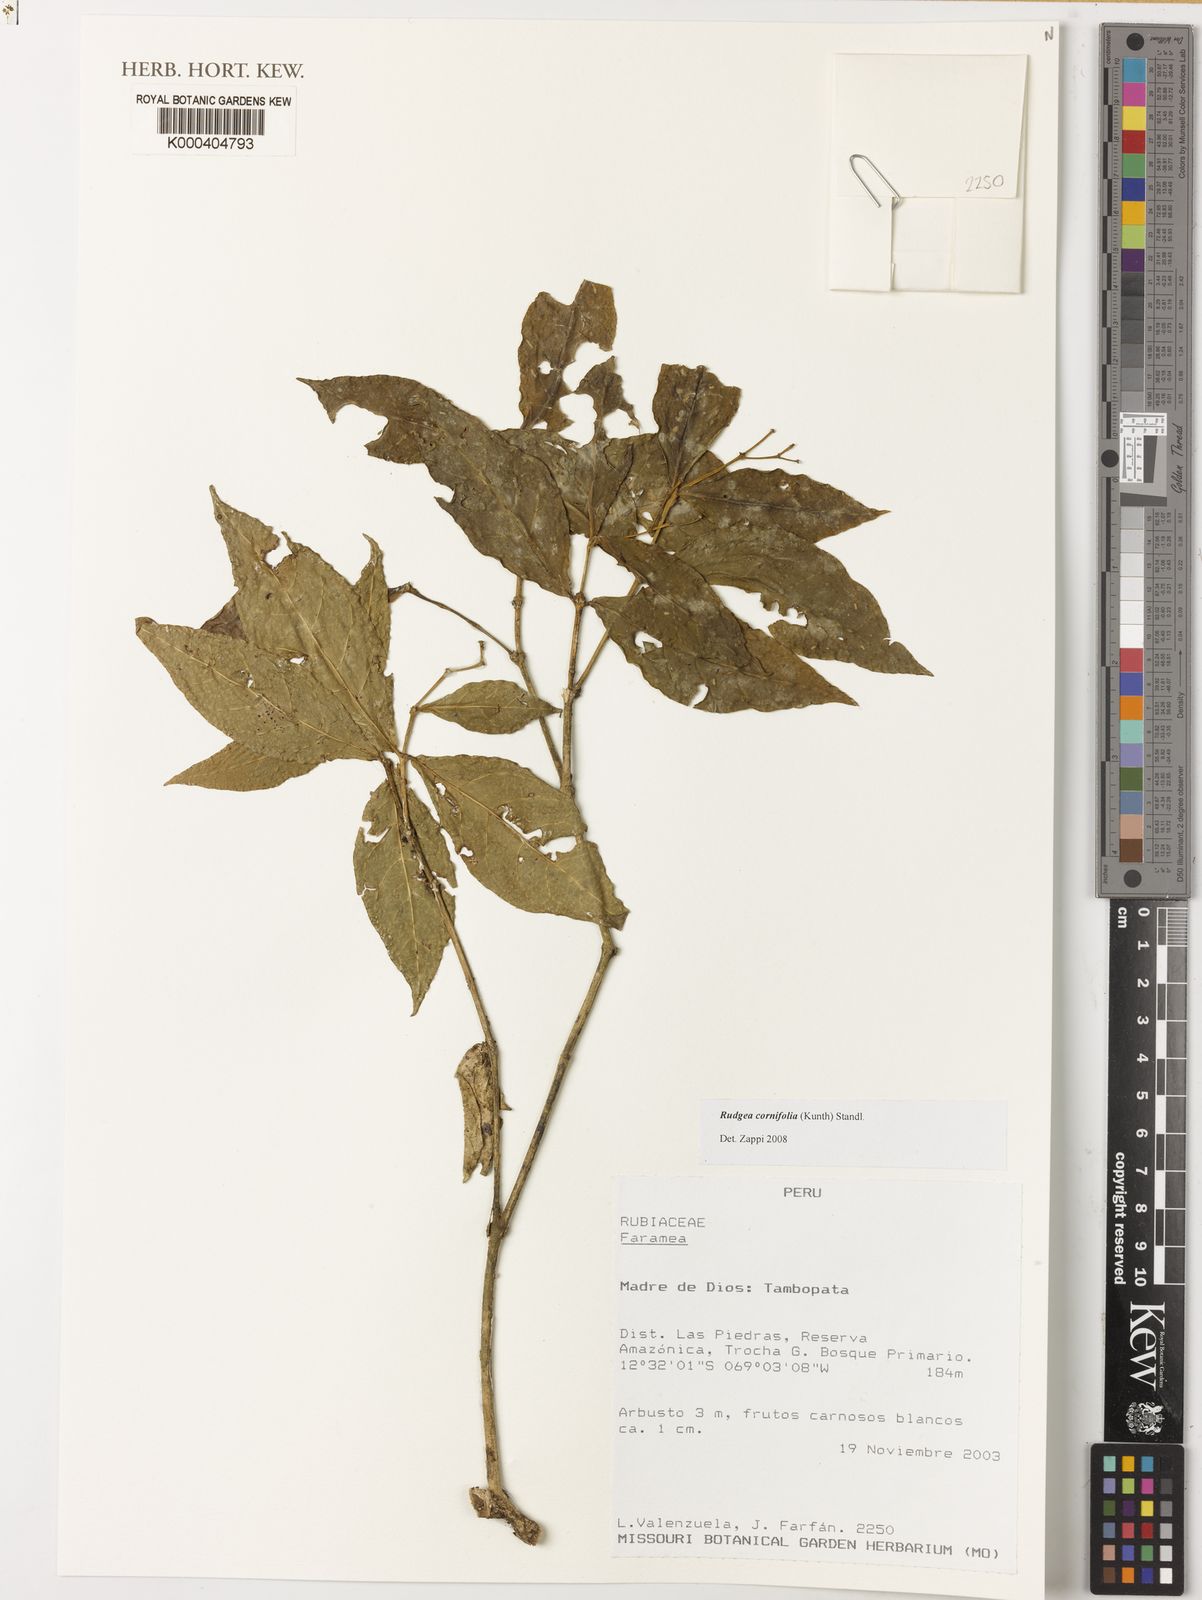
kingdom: Plantae
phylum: Tracheophyta
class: Magnoliopsida
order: Gentianales
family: Rubiaceae
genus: Rudgea
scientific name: Rudgea cornifolia
